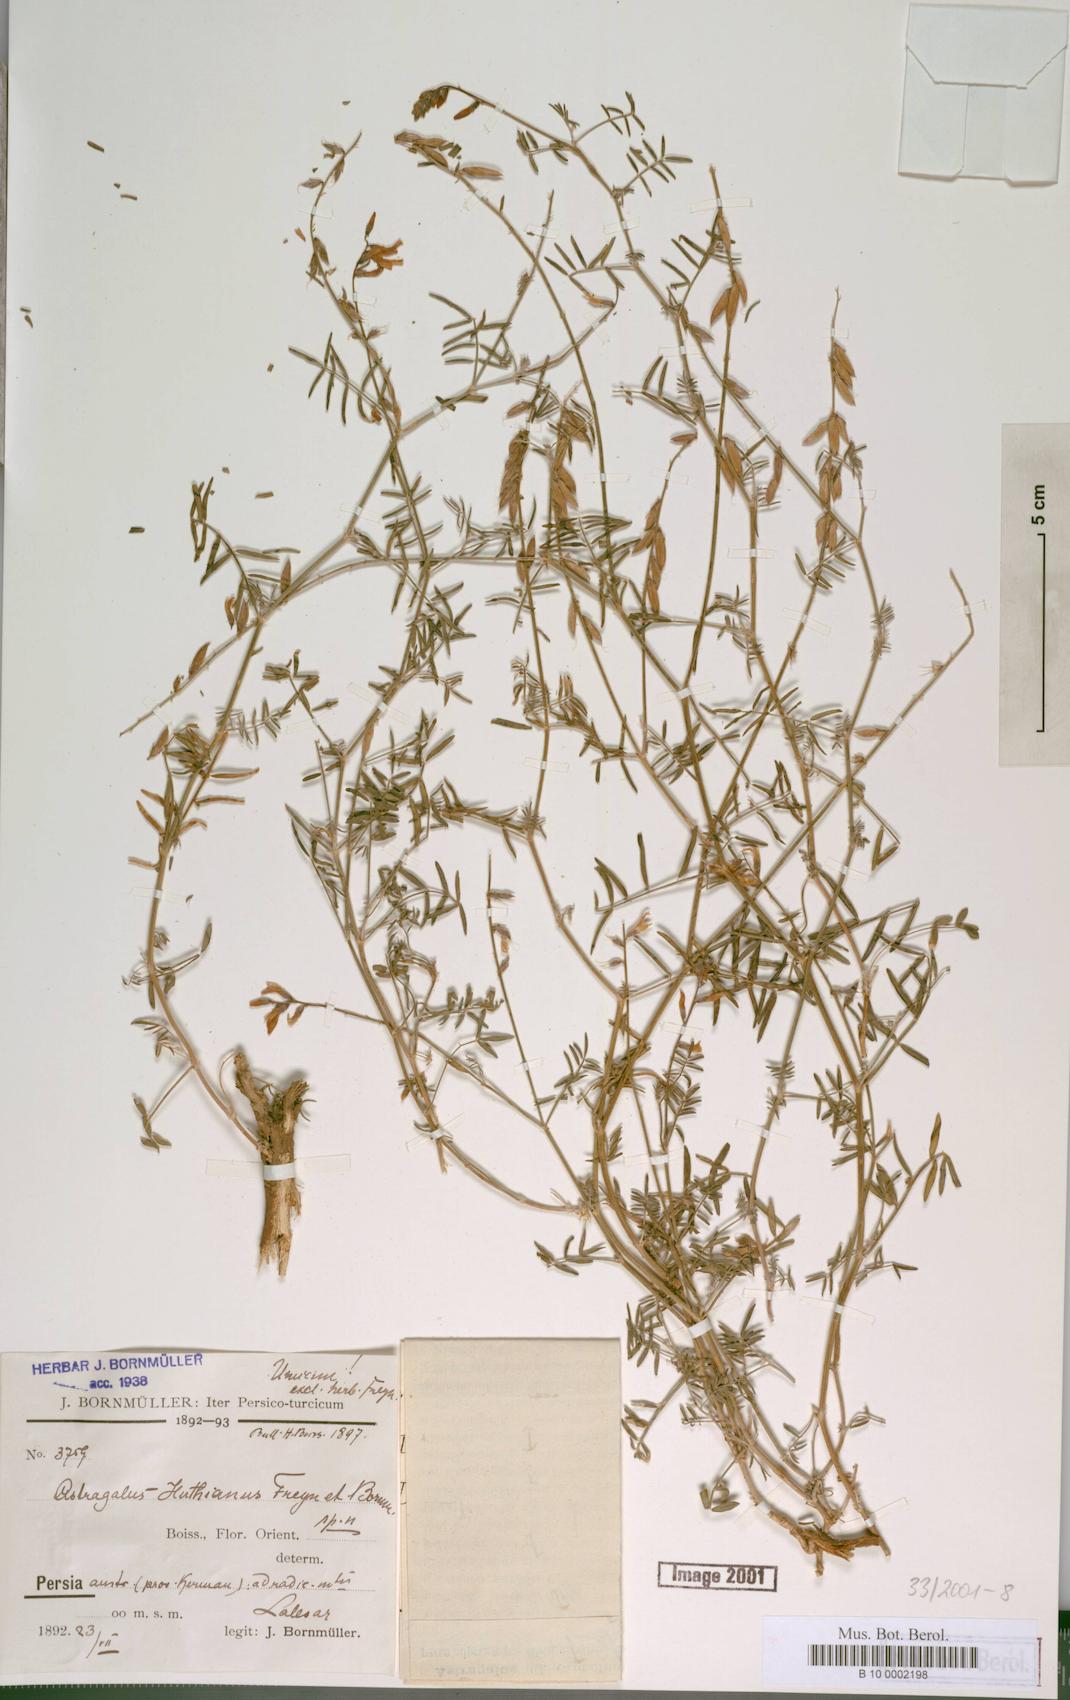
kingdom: Plantae
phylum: Tracheophyta
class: Magnoliopsida
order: Fabales
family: Fabaceae
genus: Astragalus
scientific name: Astragalus huthianus
